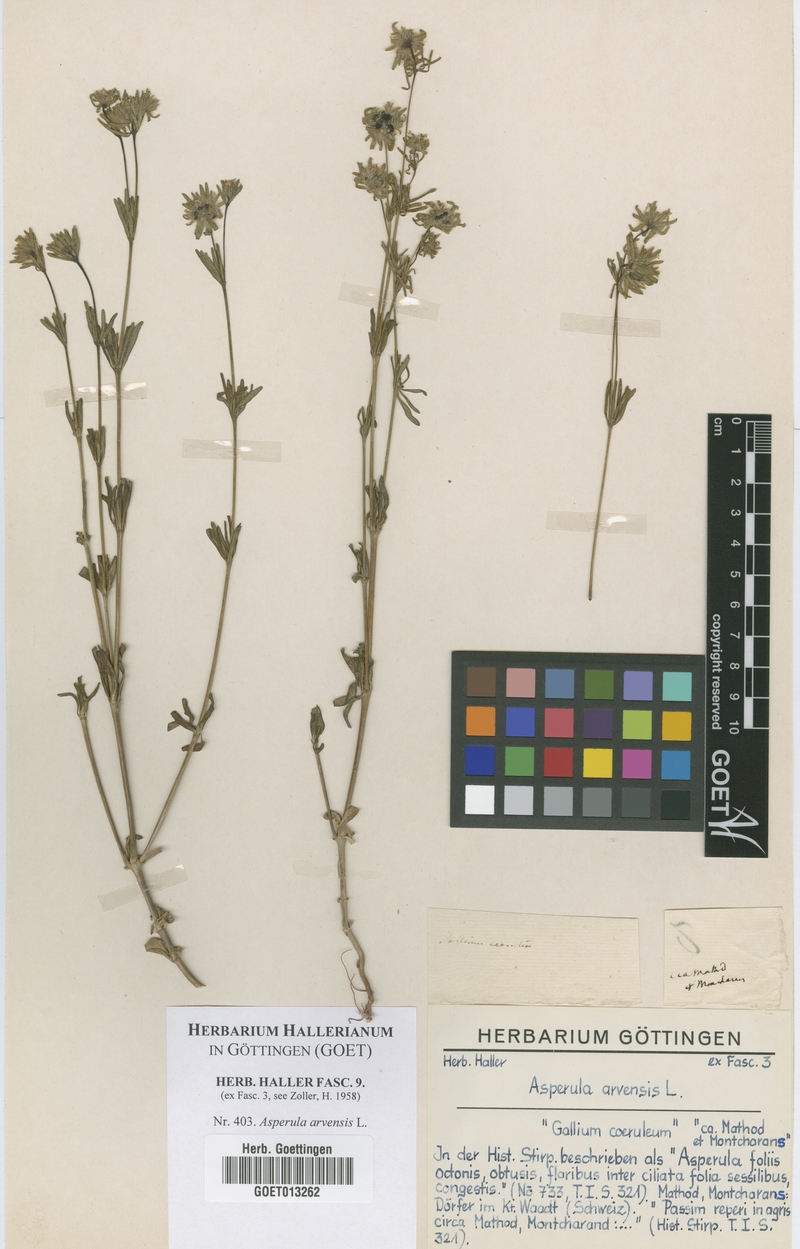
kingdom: Plantae
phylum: Tracheophyta
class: Magnoliopsida
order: Gentianales
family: Rubiaceae
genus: Asperula
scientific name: Asperula arvensis
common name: Blue woodruff
